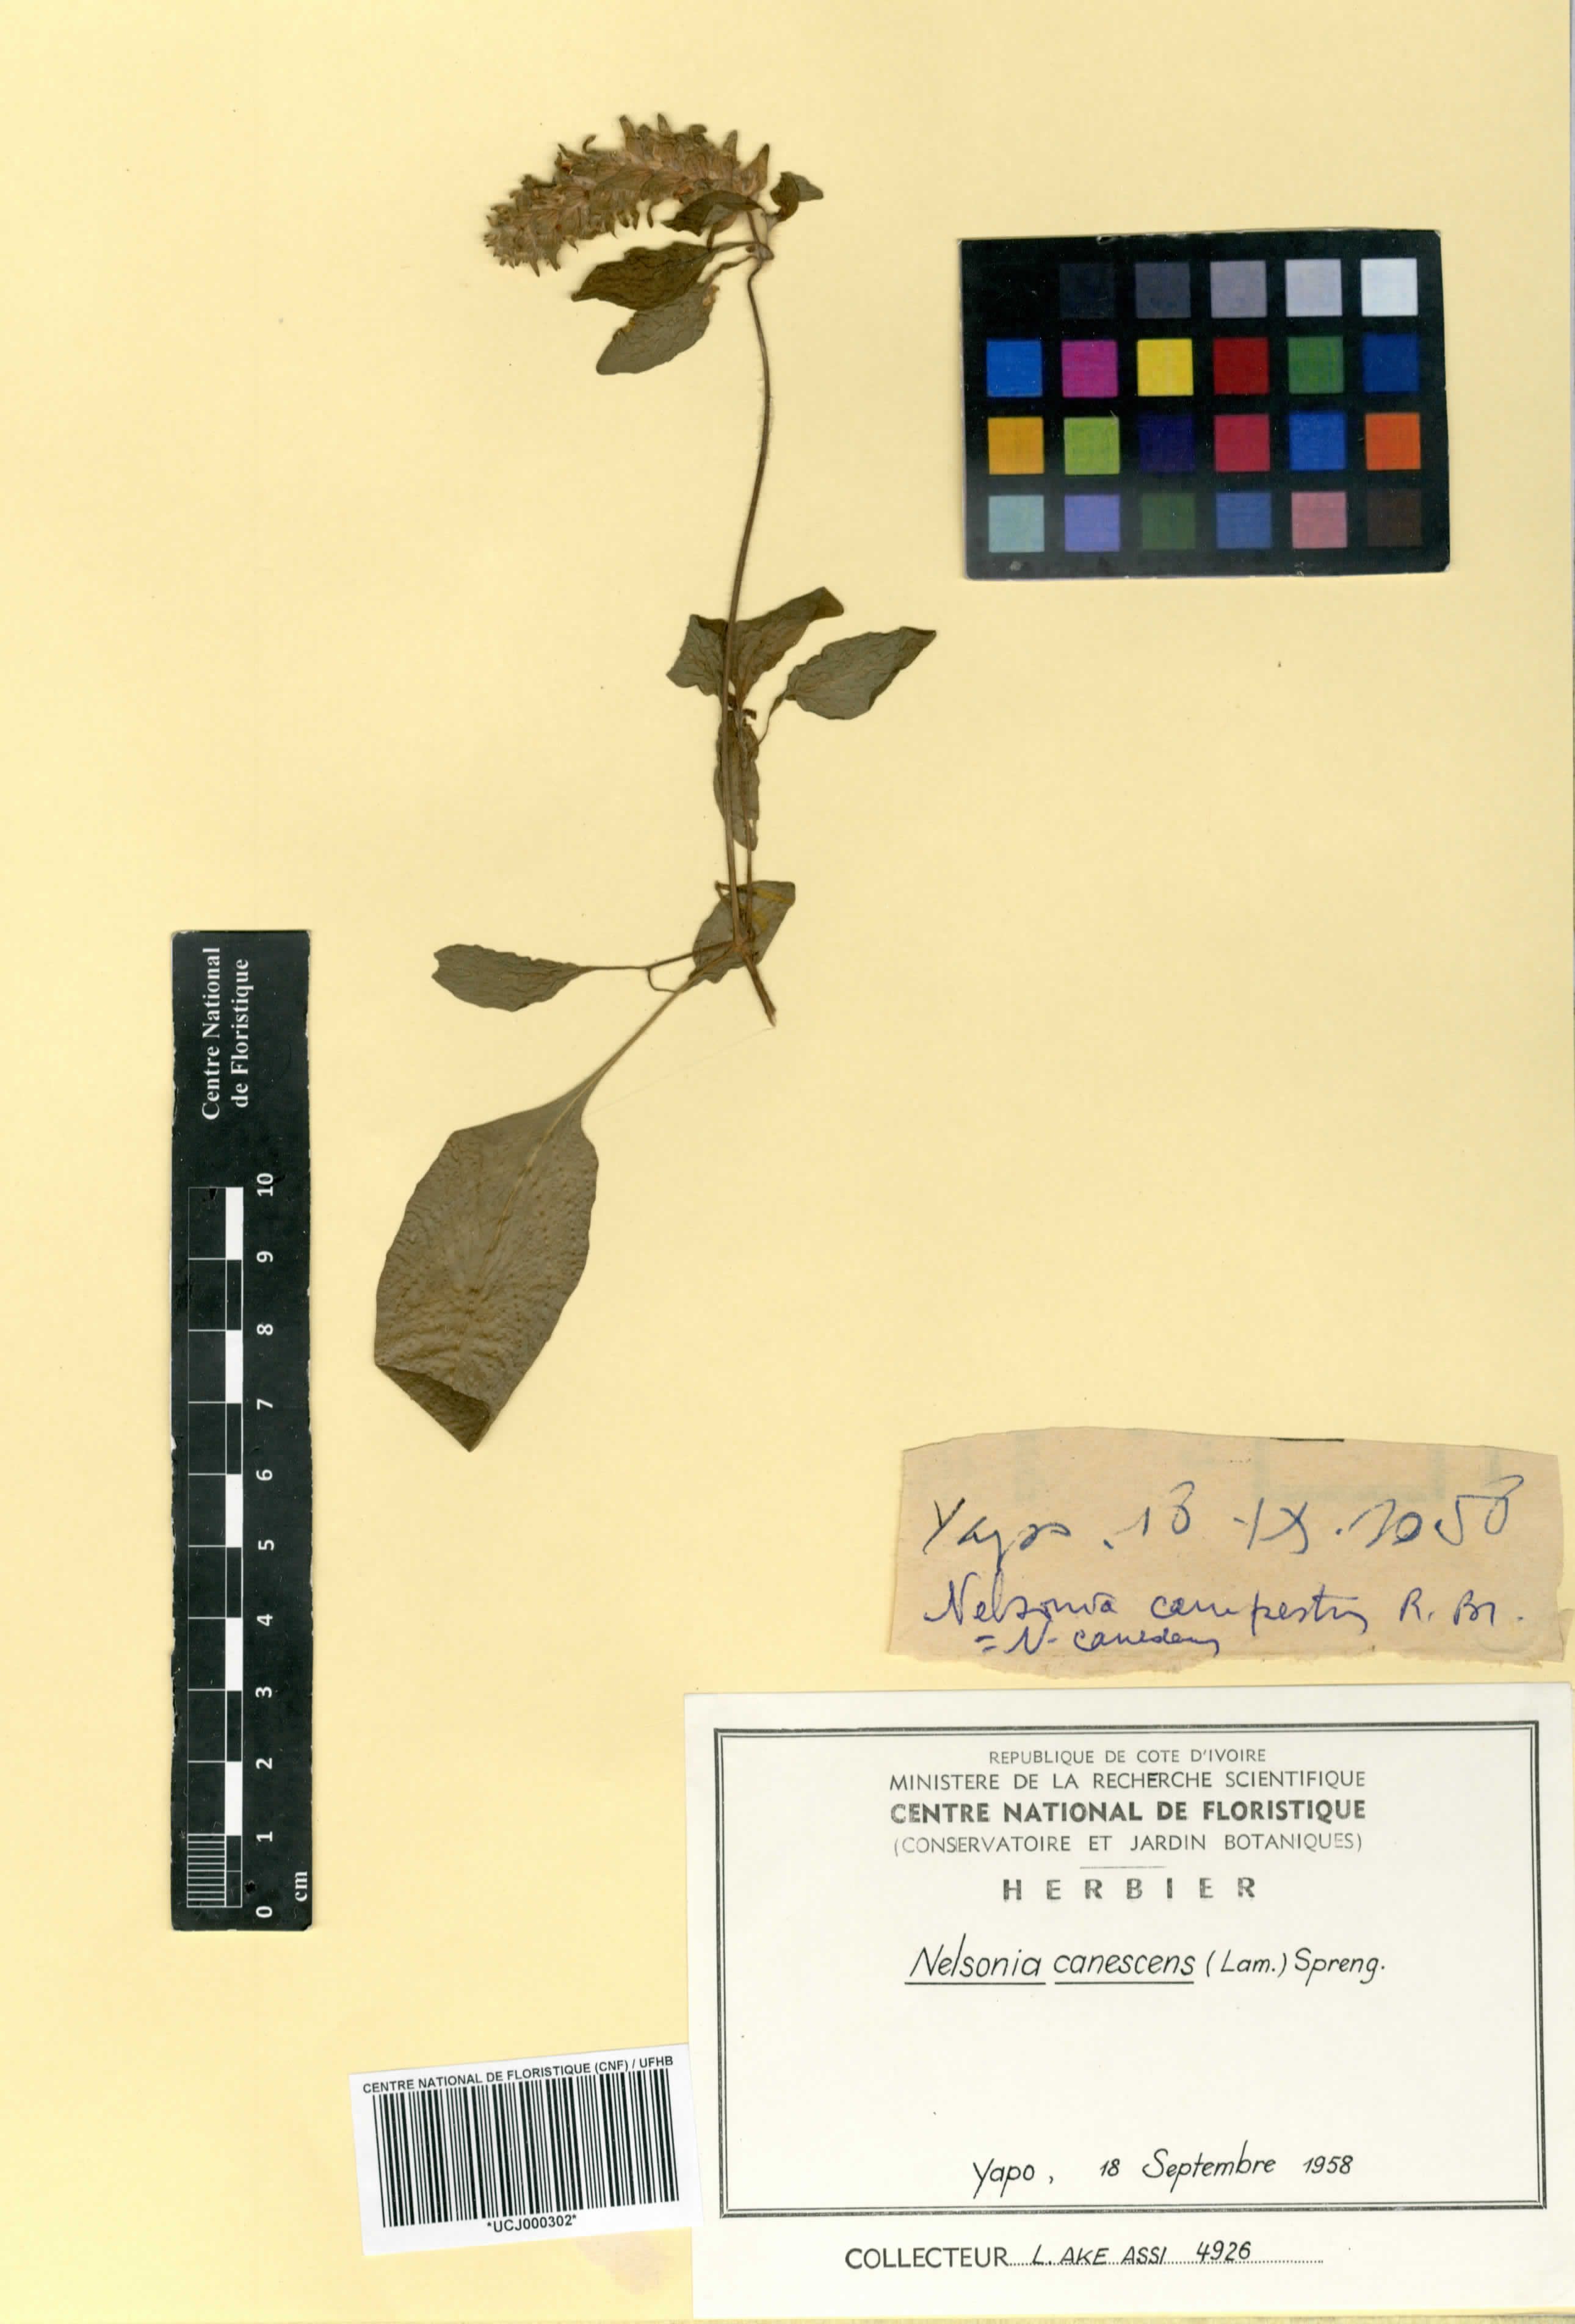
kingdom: Plantae
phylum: Tracheophyta
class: Magnoliopsida
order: Lamiales
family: Acanthaceae
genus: Nelsonia
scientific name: Nelsonia canescens
